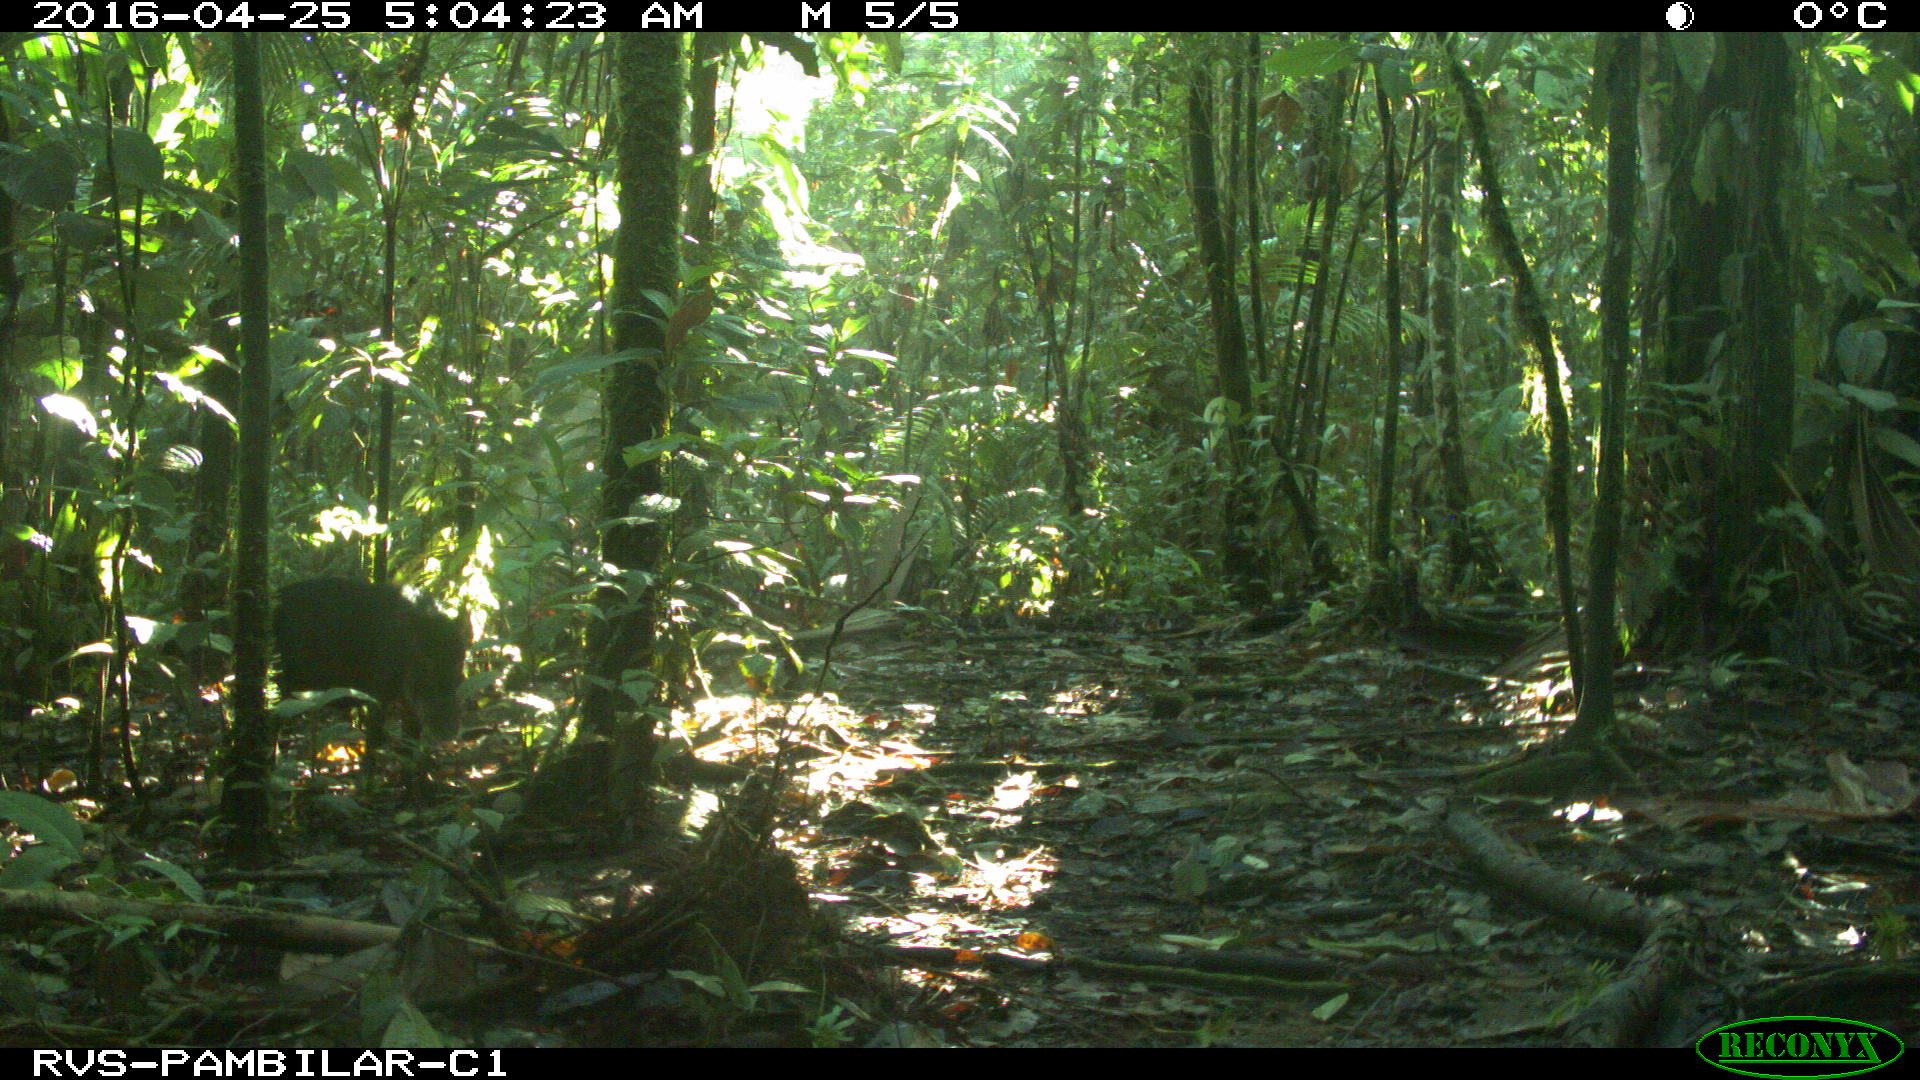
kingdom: Animalia
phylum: Chordata
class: Mammalia
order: Artiodactyla
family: Tayassuidae
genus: Tayassu
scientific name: Tayassu pecari
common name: White-lipped peccary
